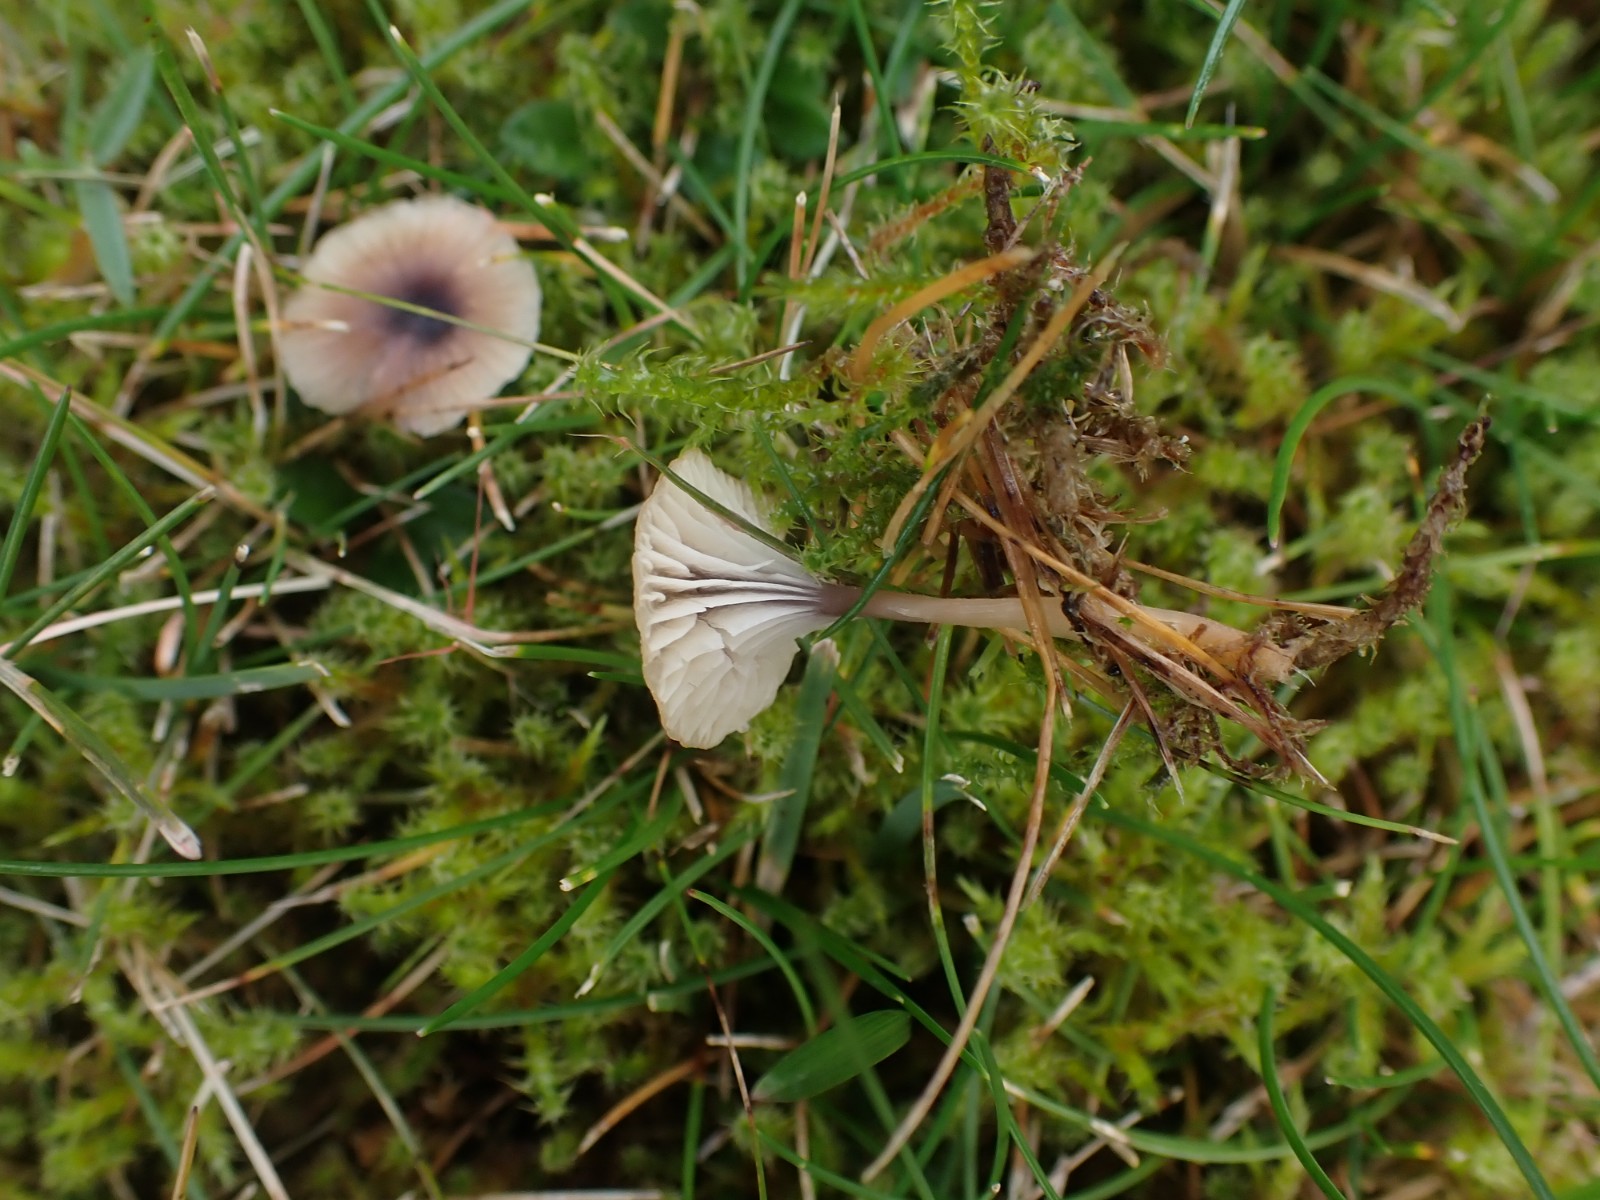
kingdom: Fungi
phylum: Basidiomycota
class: Agaricomycetes
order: Hymenochaetales
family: Rickenellaceae
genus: Rickenella
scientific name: Rickenella swartzii
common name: finstokket mosnavlehat
